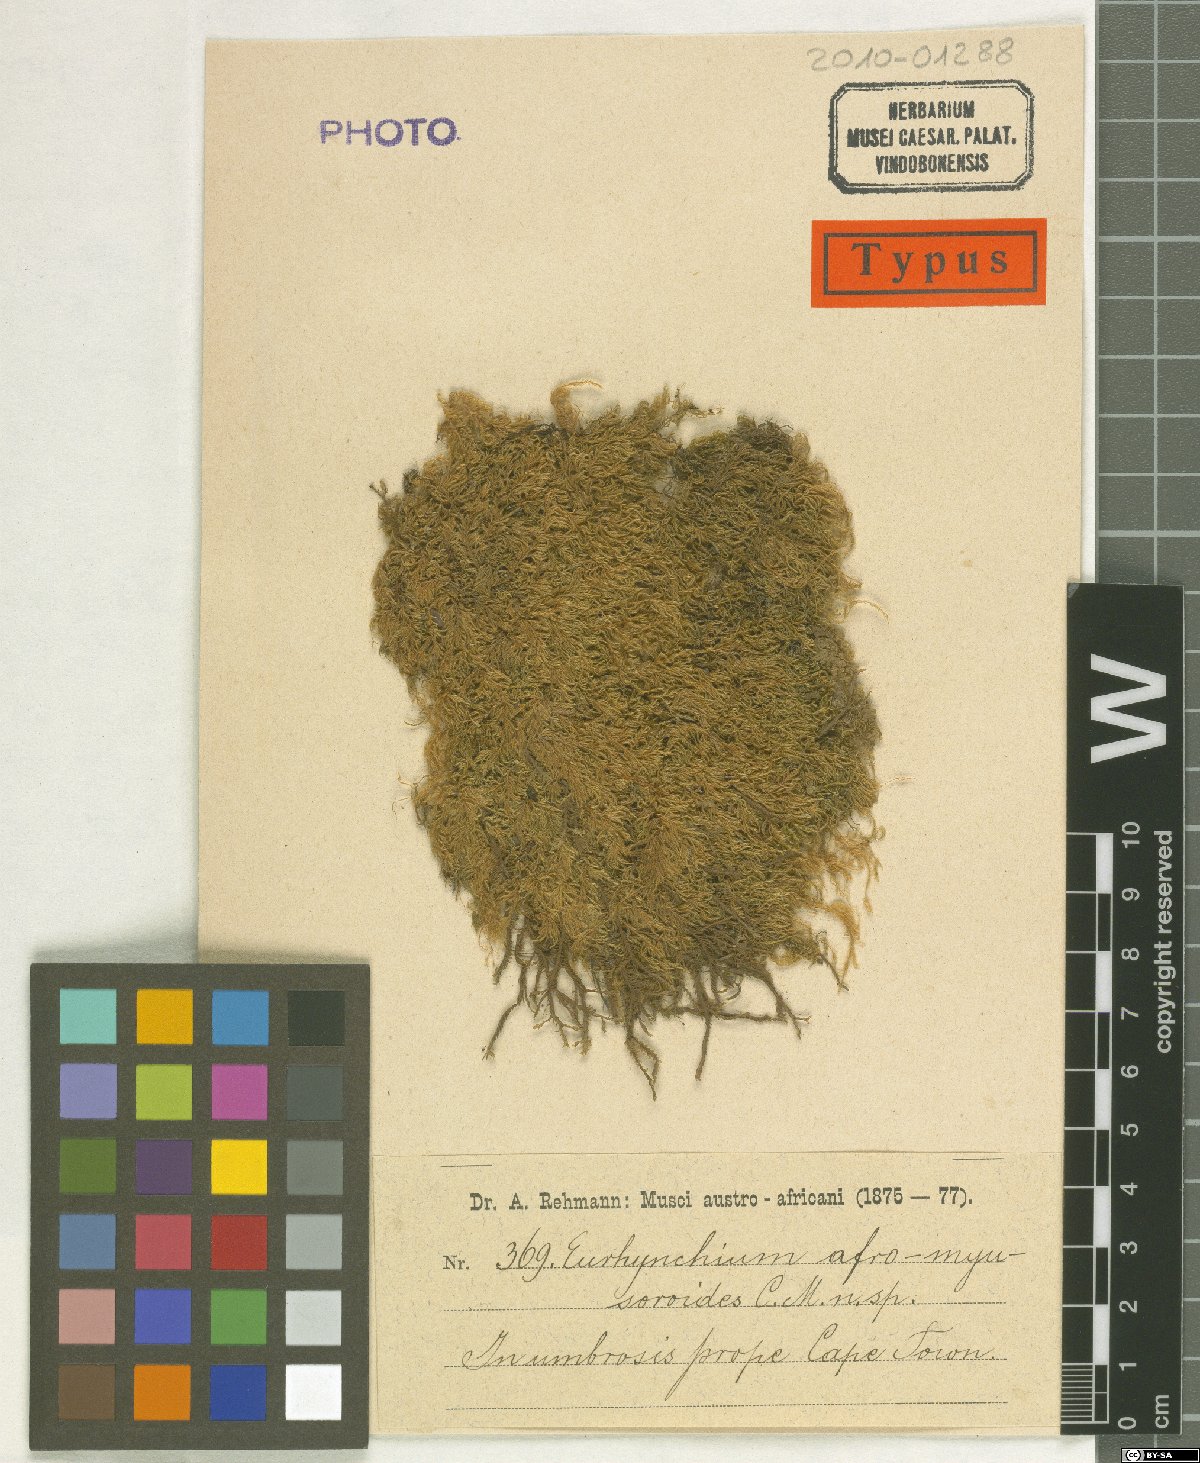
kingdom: Plantae
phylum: Bryophyta
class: Bryopsida
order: Hypnales
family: Brachytheciaceae
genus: Rhynchostegium
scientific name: Rhynchostegium zeyheri
